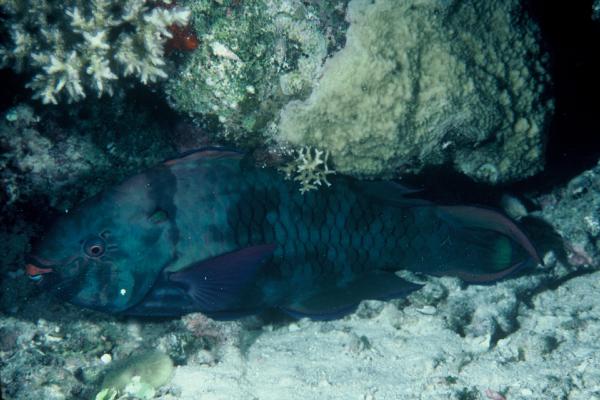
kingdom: Animalia
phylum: Chordata
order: Perciformes
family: Scaridae
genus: Scarus
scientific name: Scarus niger
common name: Dusky parrotfish
